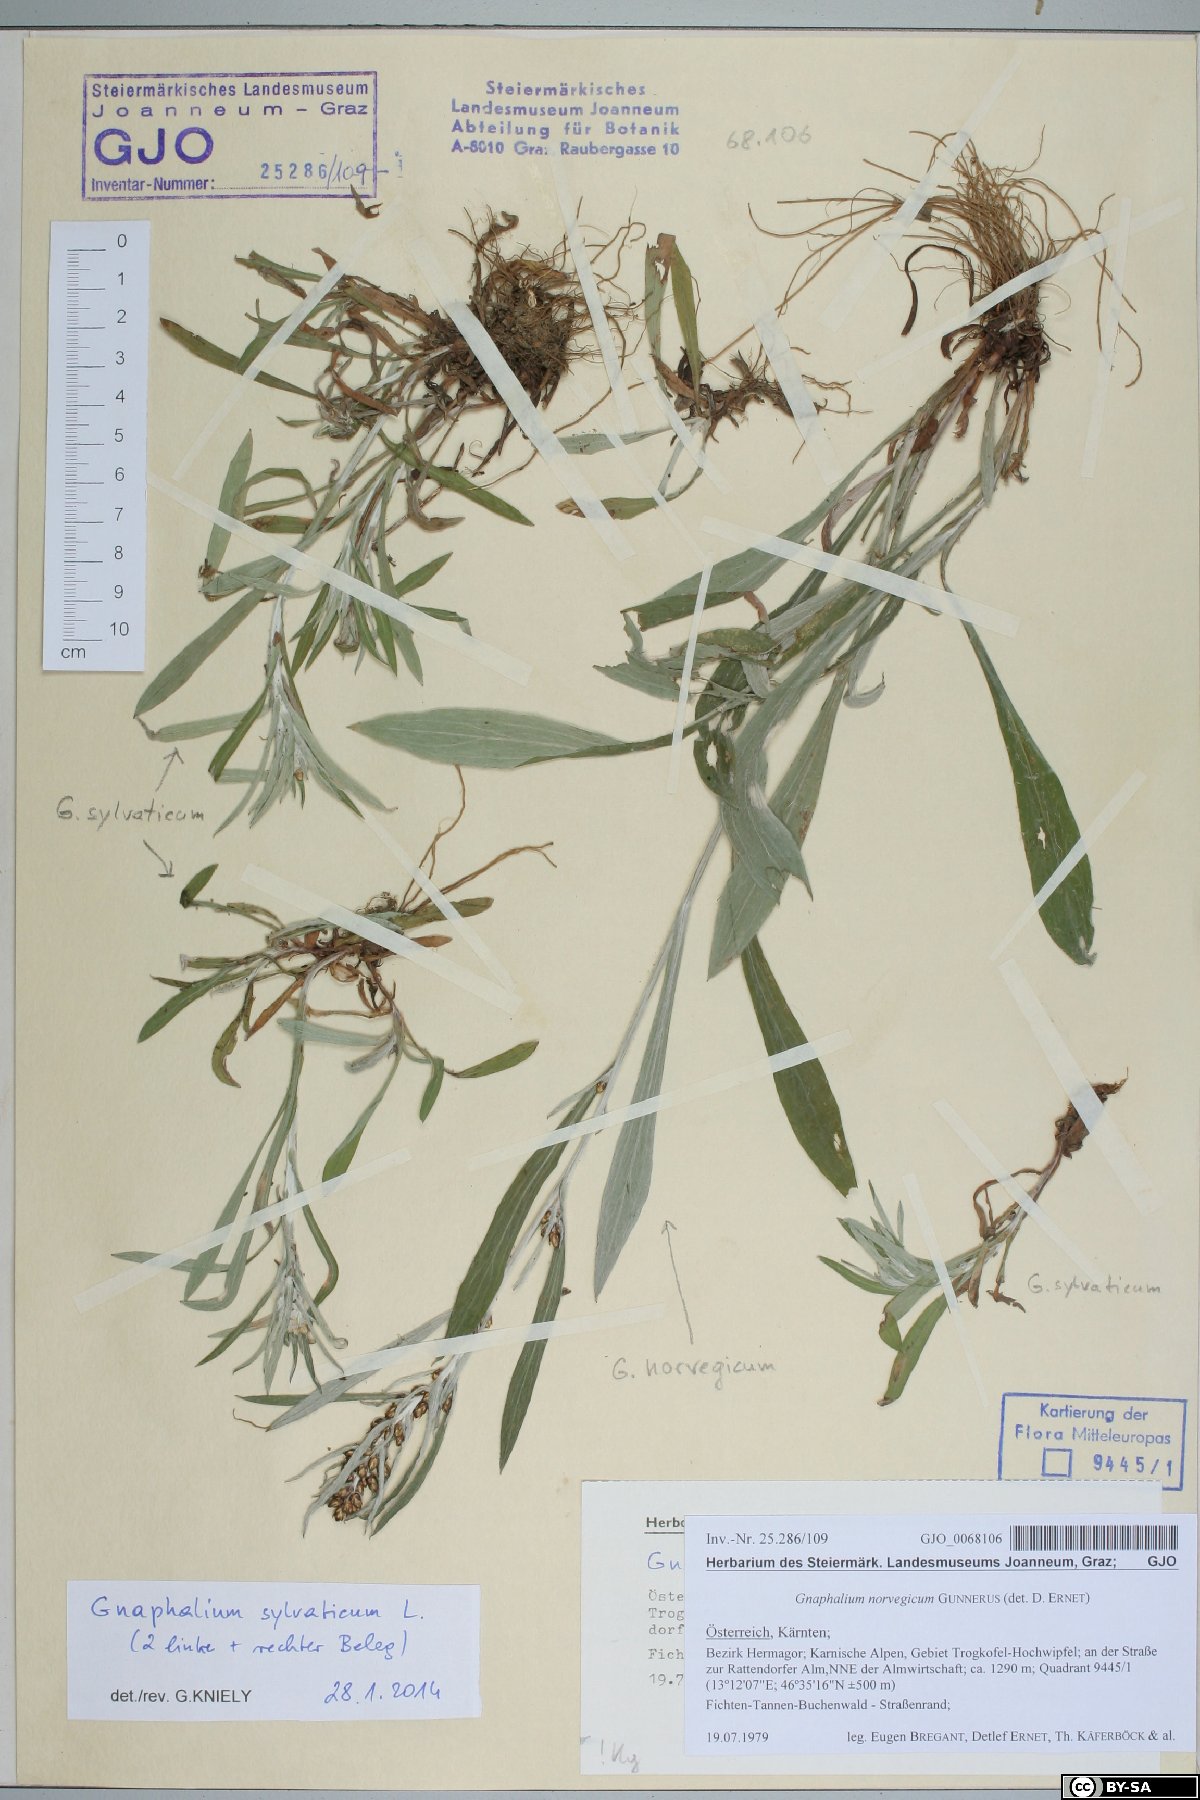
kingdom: Plantae
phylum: Tracheophyta
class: Magnoliopsida
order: Asterales
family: Asteraceae
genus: Omalotheca
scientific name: Omalotheca norvegica
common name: Norwegian arctic-cudweed
